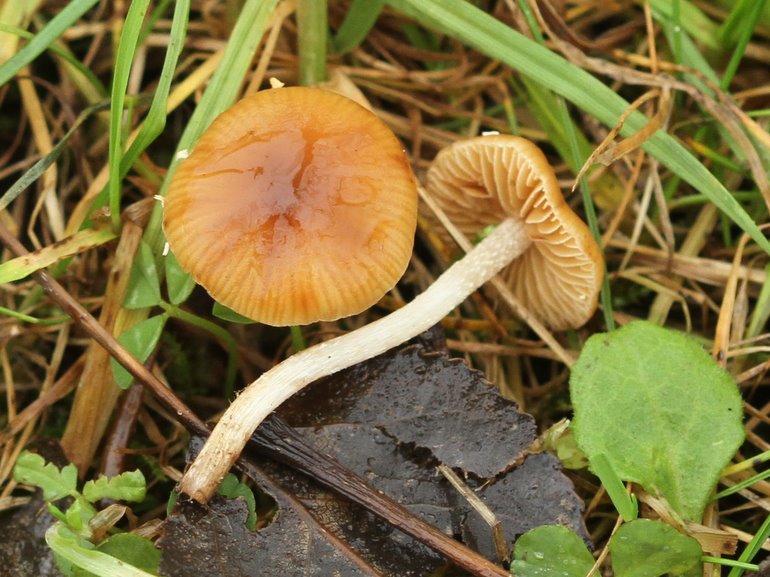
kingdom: Fungi
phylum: Basidiomycota
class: Agaricomycetes
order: Agaricales
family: Bolbitiaceae
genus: Conocybe
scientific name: Conocybe nemoralis
